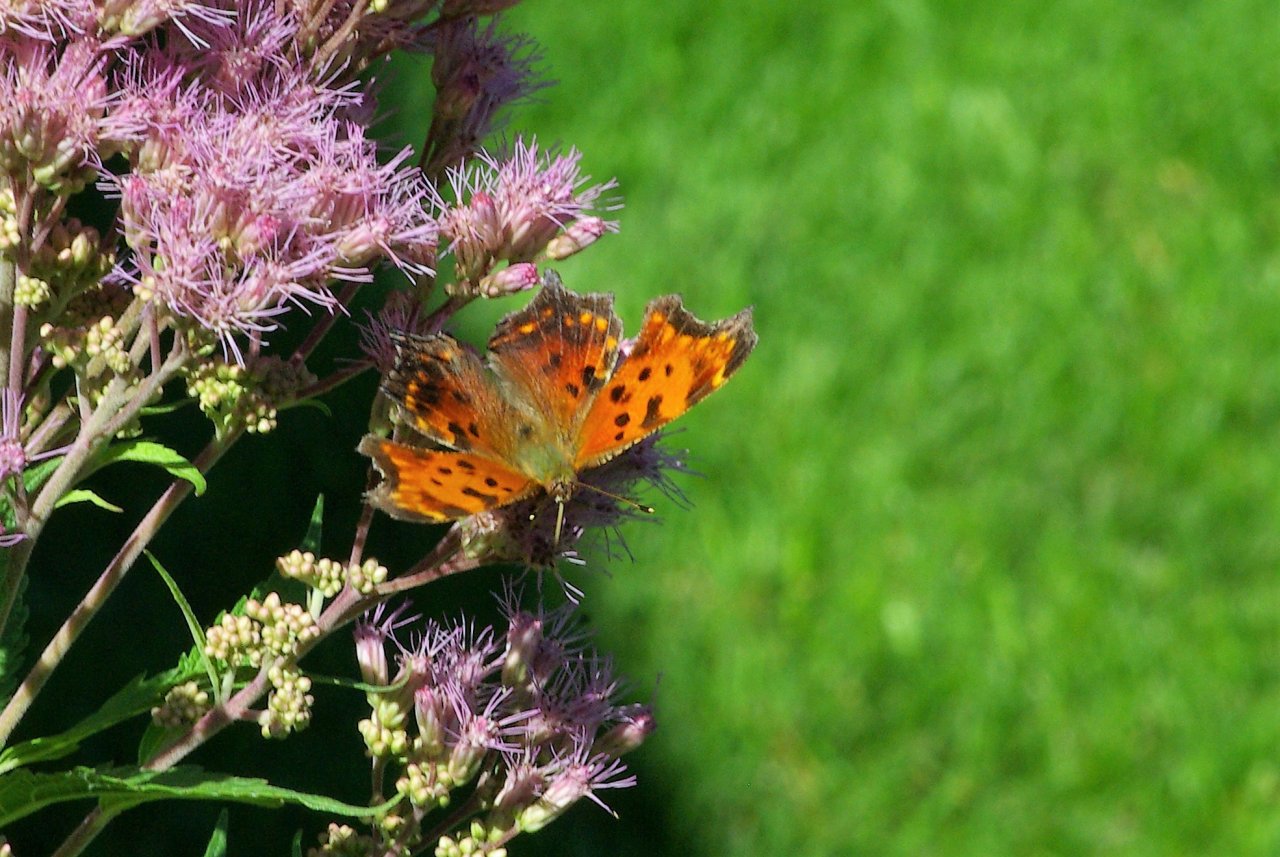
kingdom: Animalia
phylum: Arthropoda
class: Insecta
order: Lepidoptera
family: Nymphalidae
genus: Polygonia
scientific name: Polygonia comma
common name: Eastern Comma
